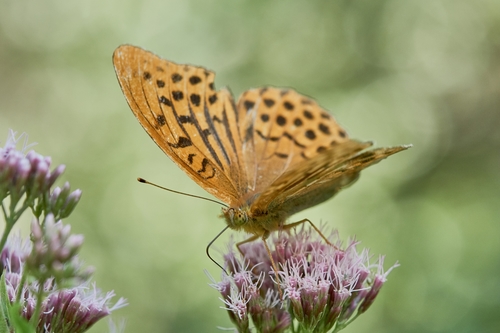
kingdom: Animalia
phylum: Arthropoda
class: Insecta
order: Lepidoptera
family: Nymphalidae
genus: Argynnis
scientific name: Argynnis paphia
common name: Silver-washed fritillary
